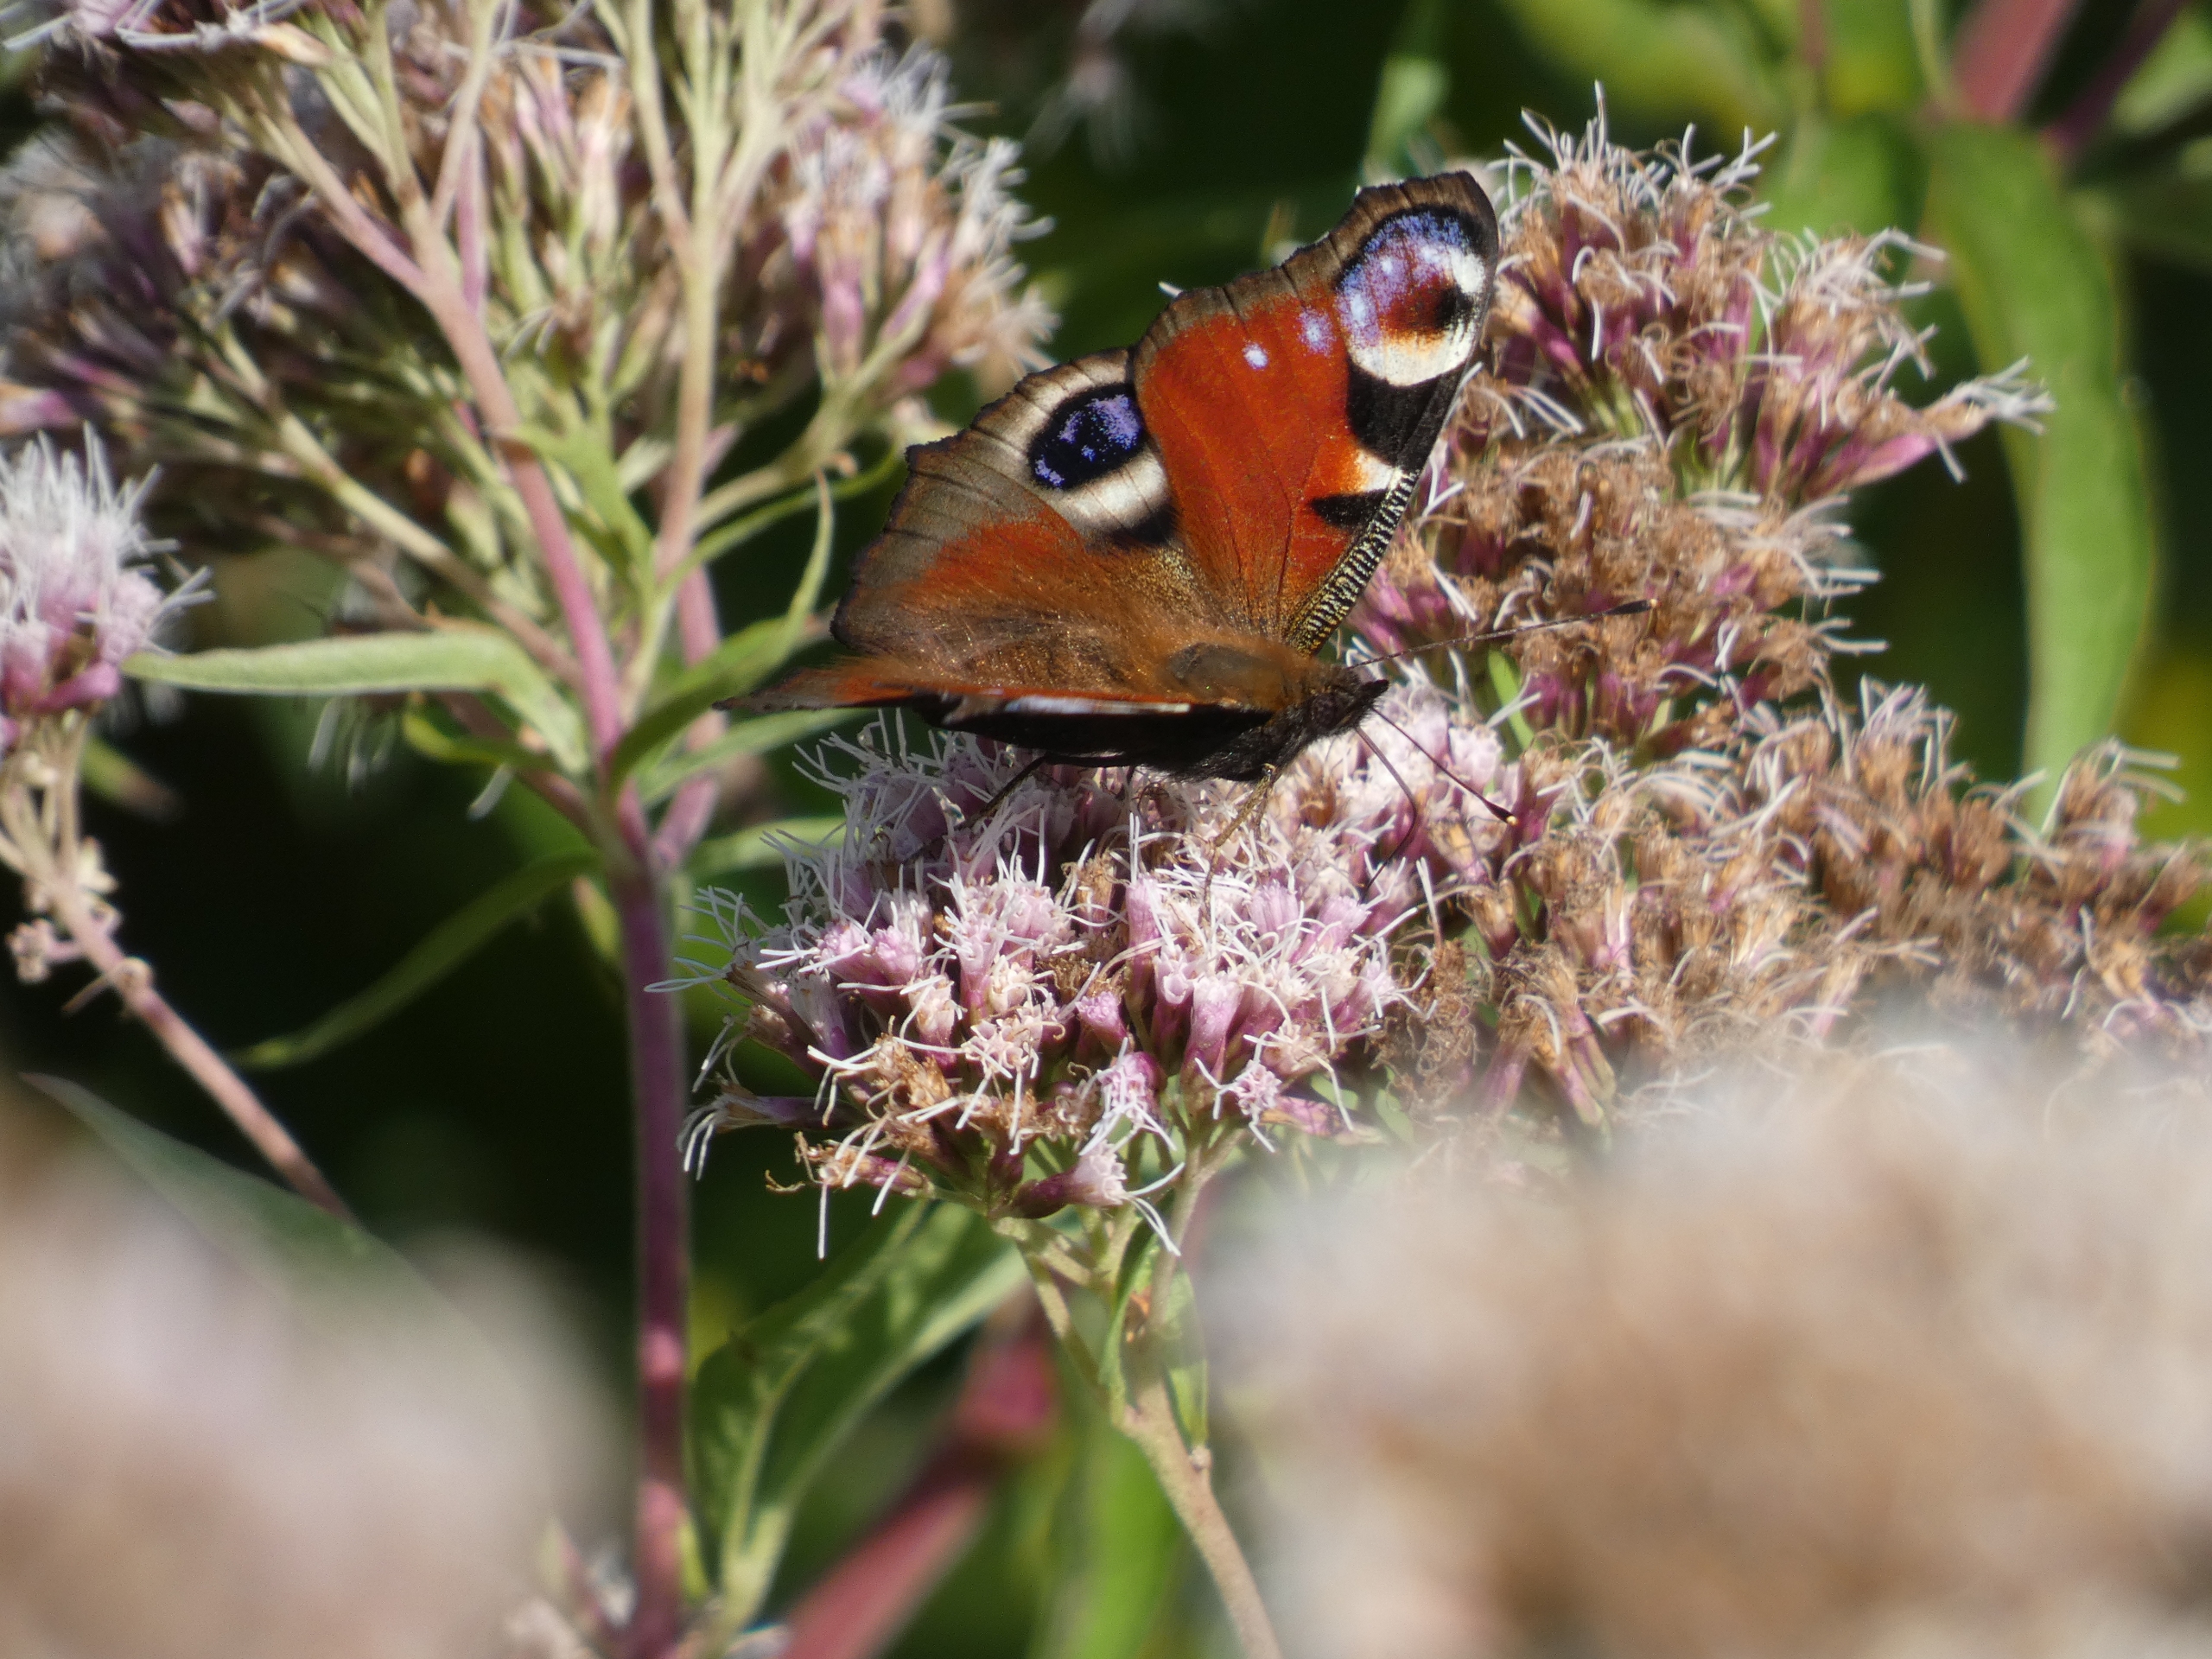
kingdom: Animalia
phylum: Arthropoda
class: Insecta
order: Lepidoptera
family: Nymphalidae
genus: Aglais
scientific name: Aglais io
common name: Dagpåfugleøje
